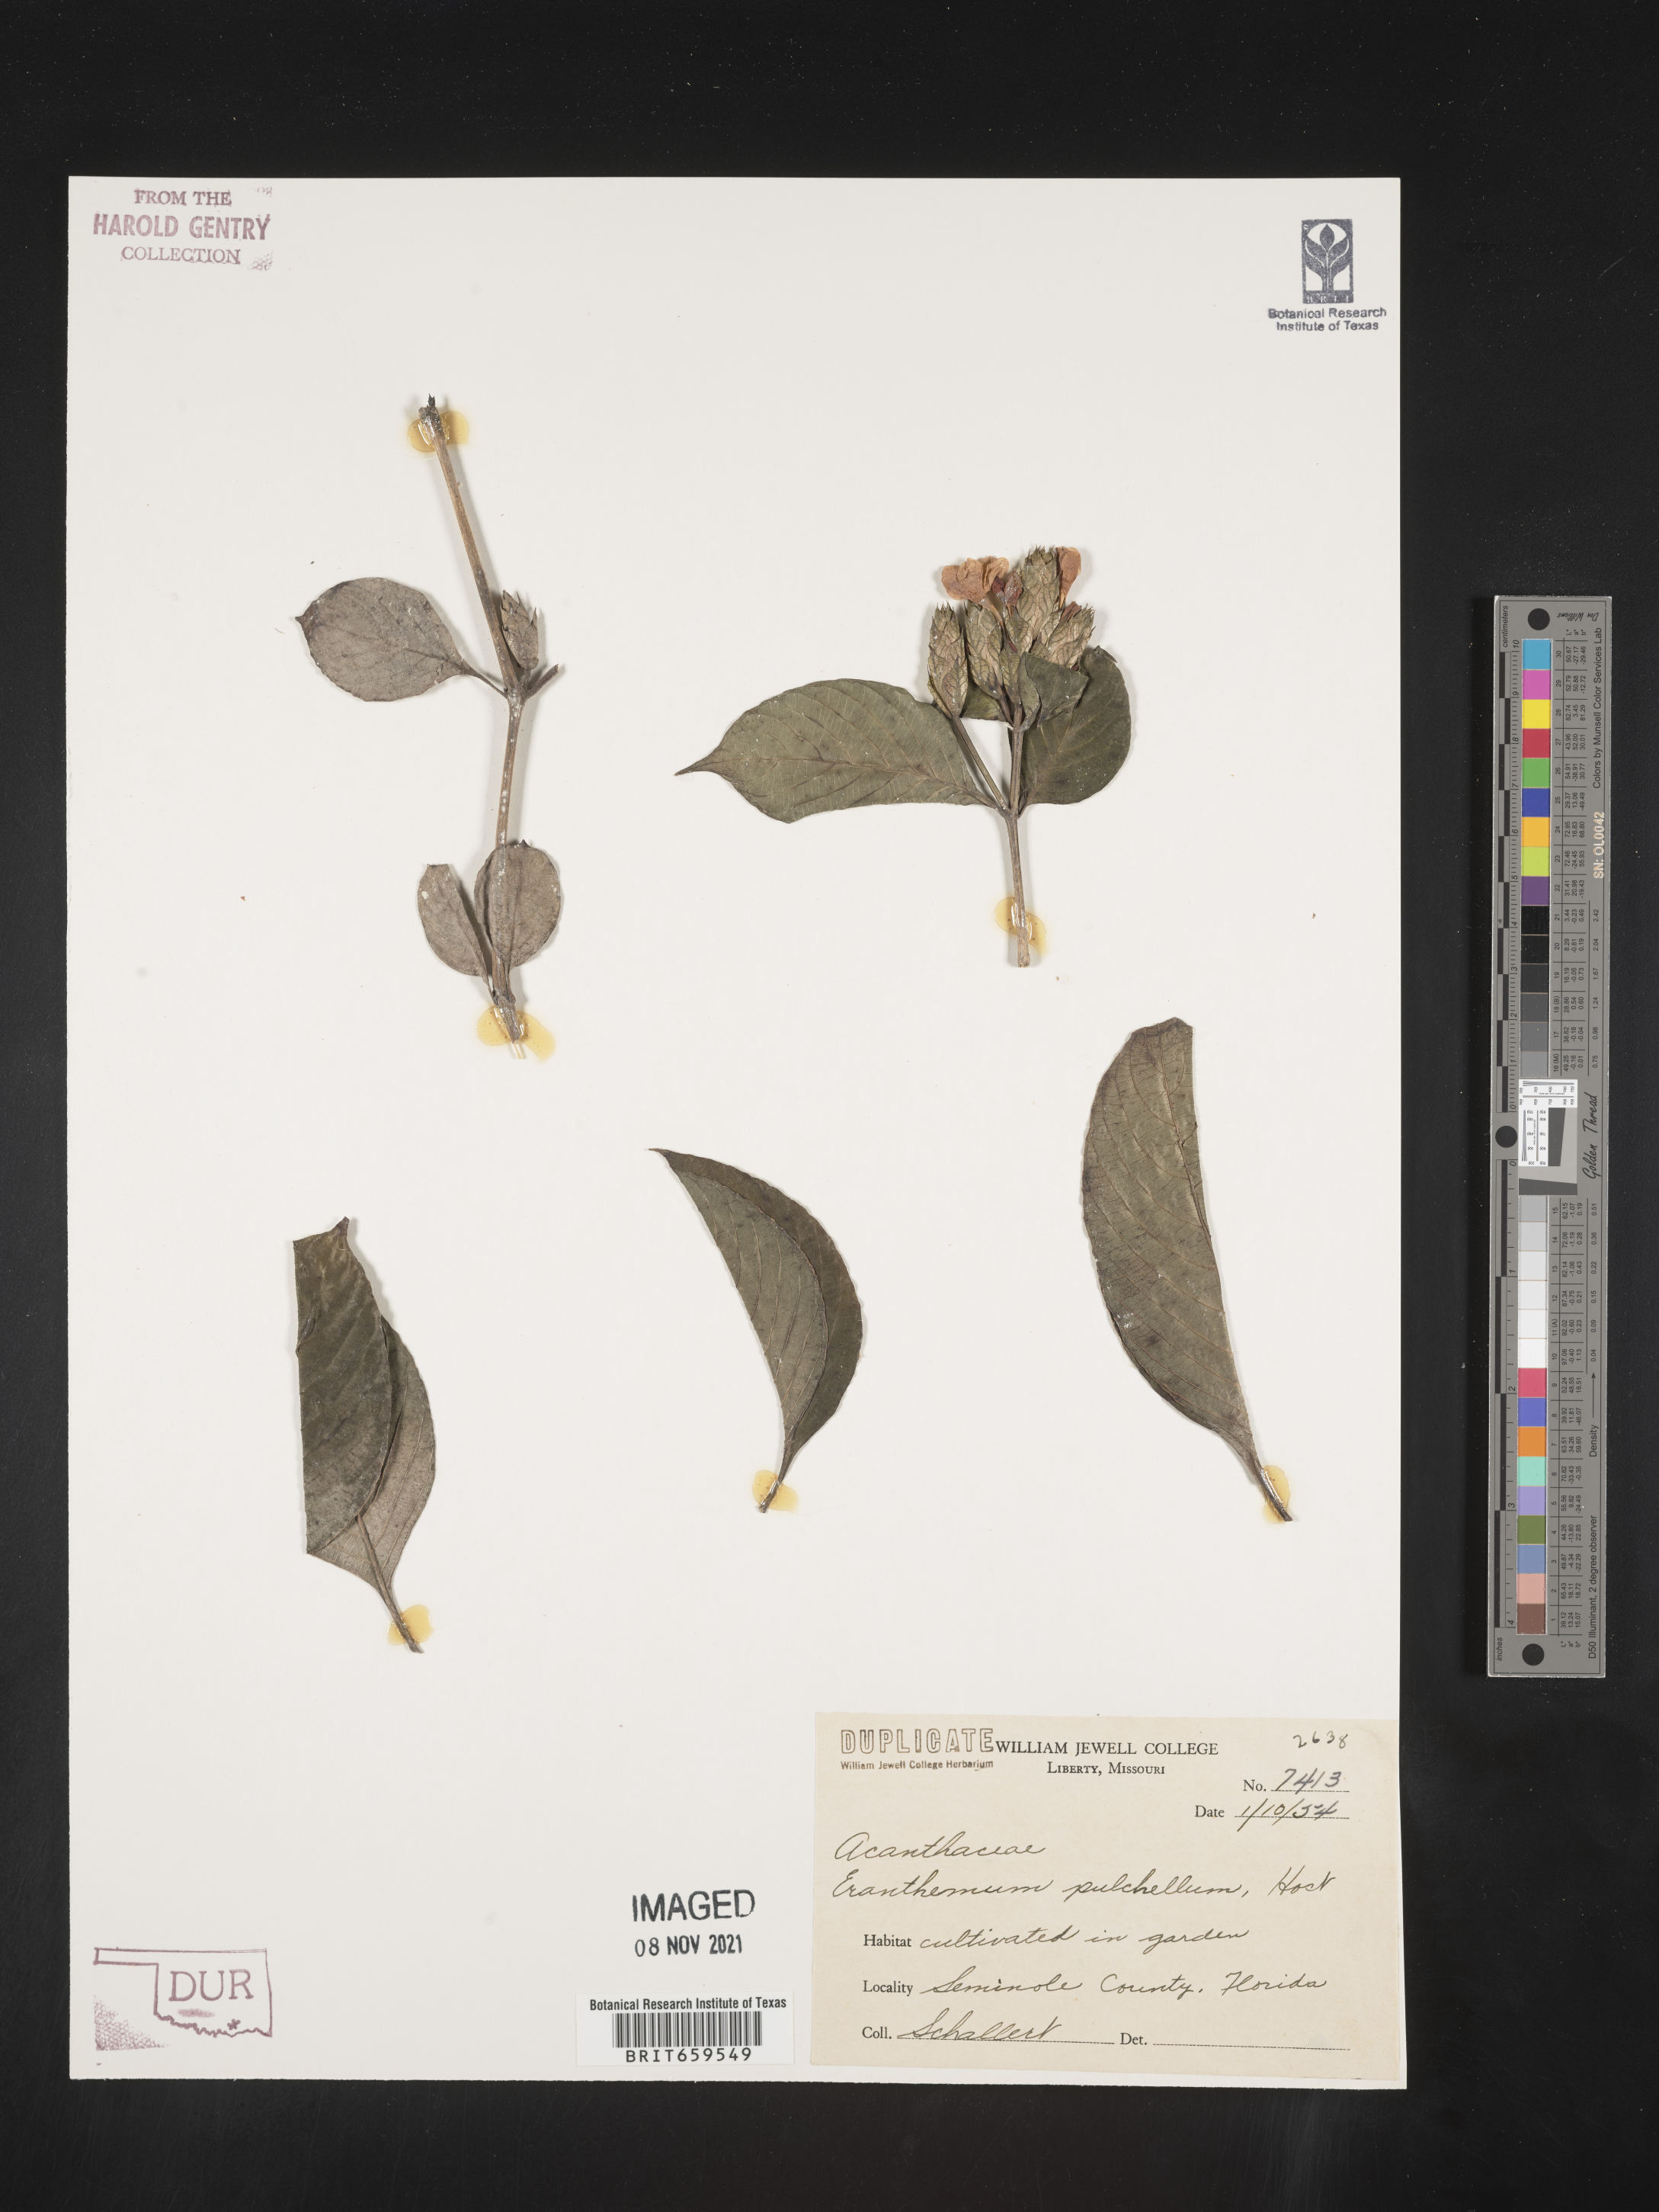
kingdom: Plantae
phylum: Tracheophyta
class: Magnoliopsida
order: Lamiales
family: Acanthaceae
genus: Eranthemum
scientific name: Eranthemum
